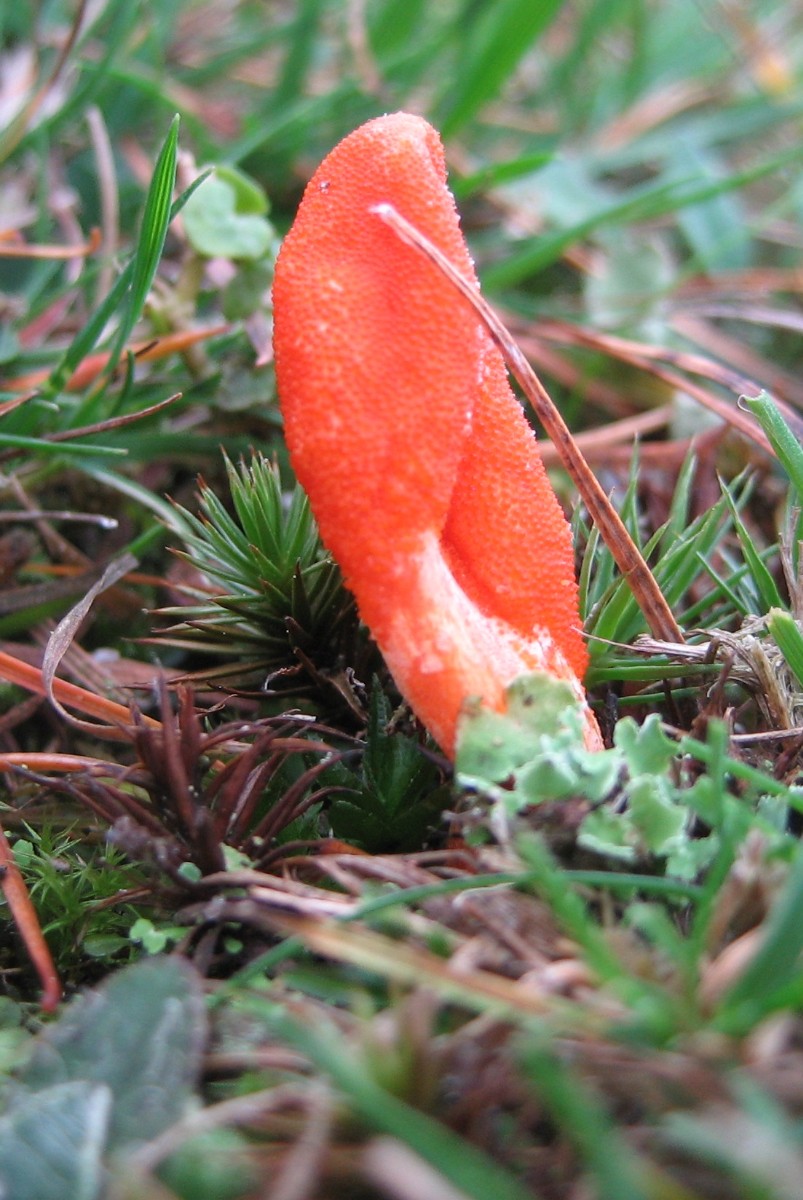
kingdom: Fungi
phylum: Ascomycota
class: Sordariomycetes
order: Hypocreales
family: Cordycipitaceae
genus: Cordyceps
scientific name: Cordyceps militaris
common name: puppe-snyltekølle
